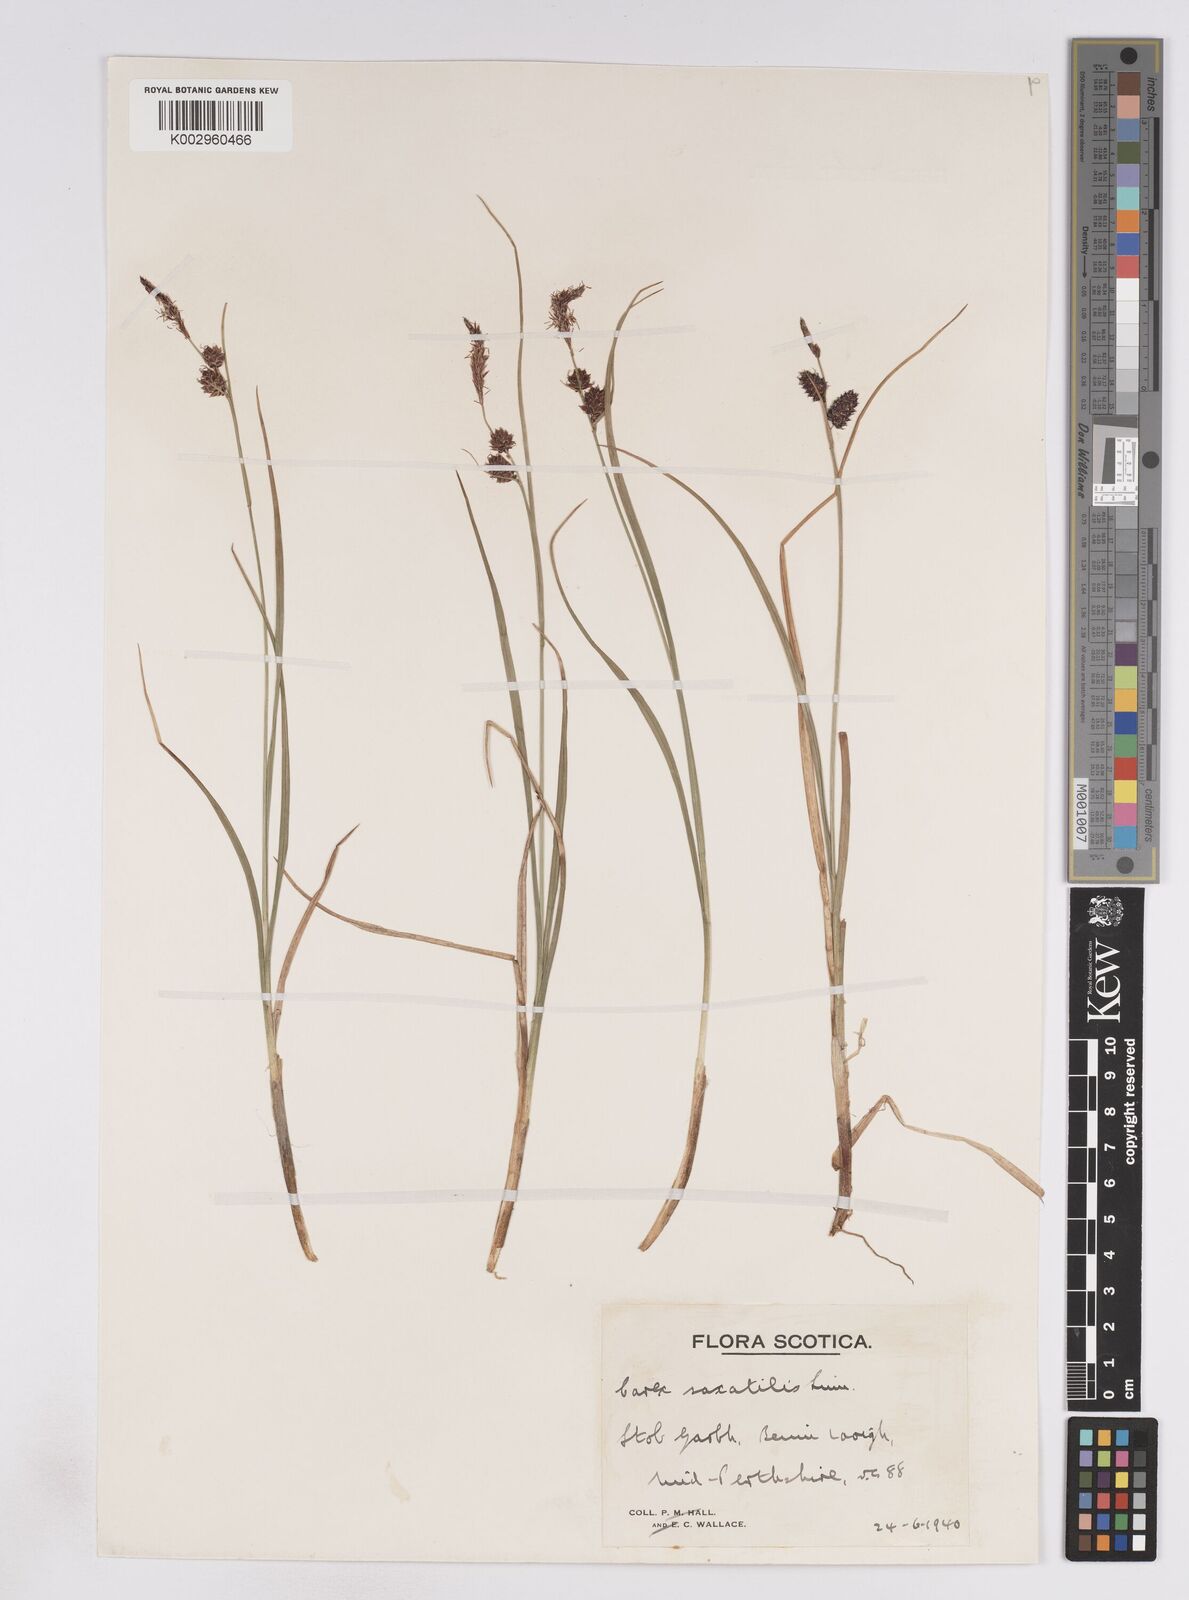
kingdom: Plantae
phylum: Tracheophyta
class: Liliopsida
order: Poales
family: Cyperaceae
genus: Carex
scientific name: Carex saxatilis
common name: Russet sedge
